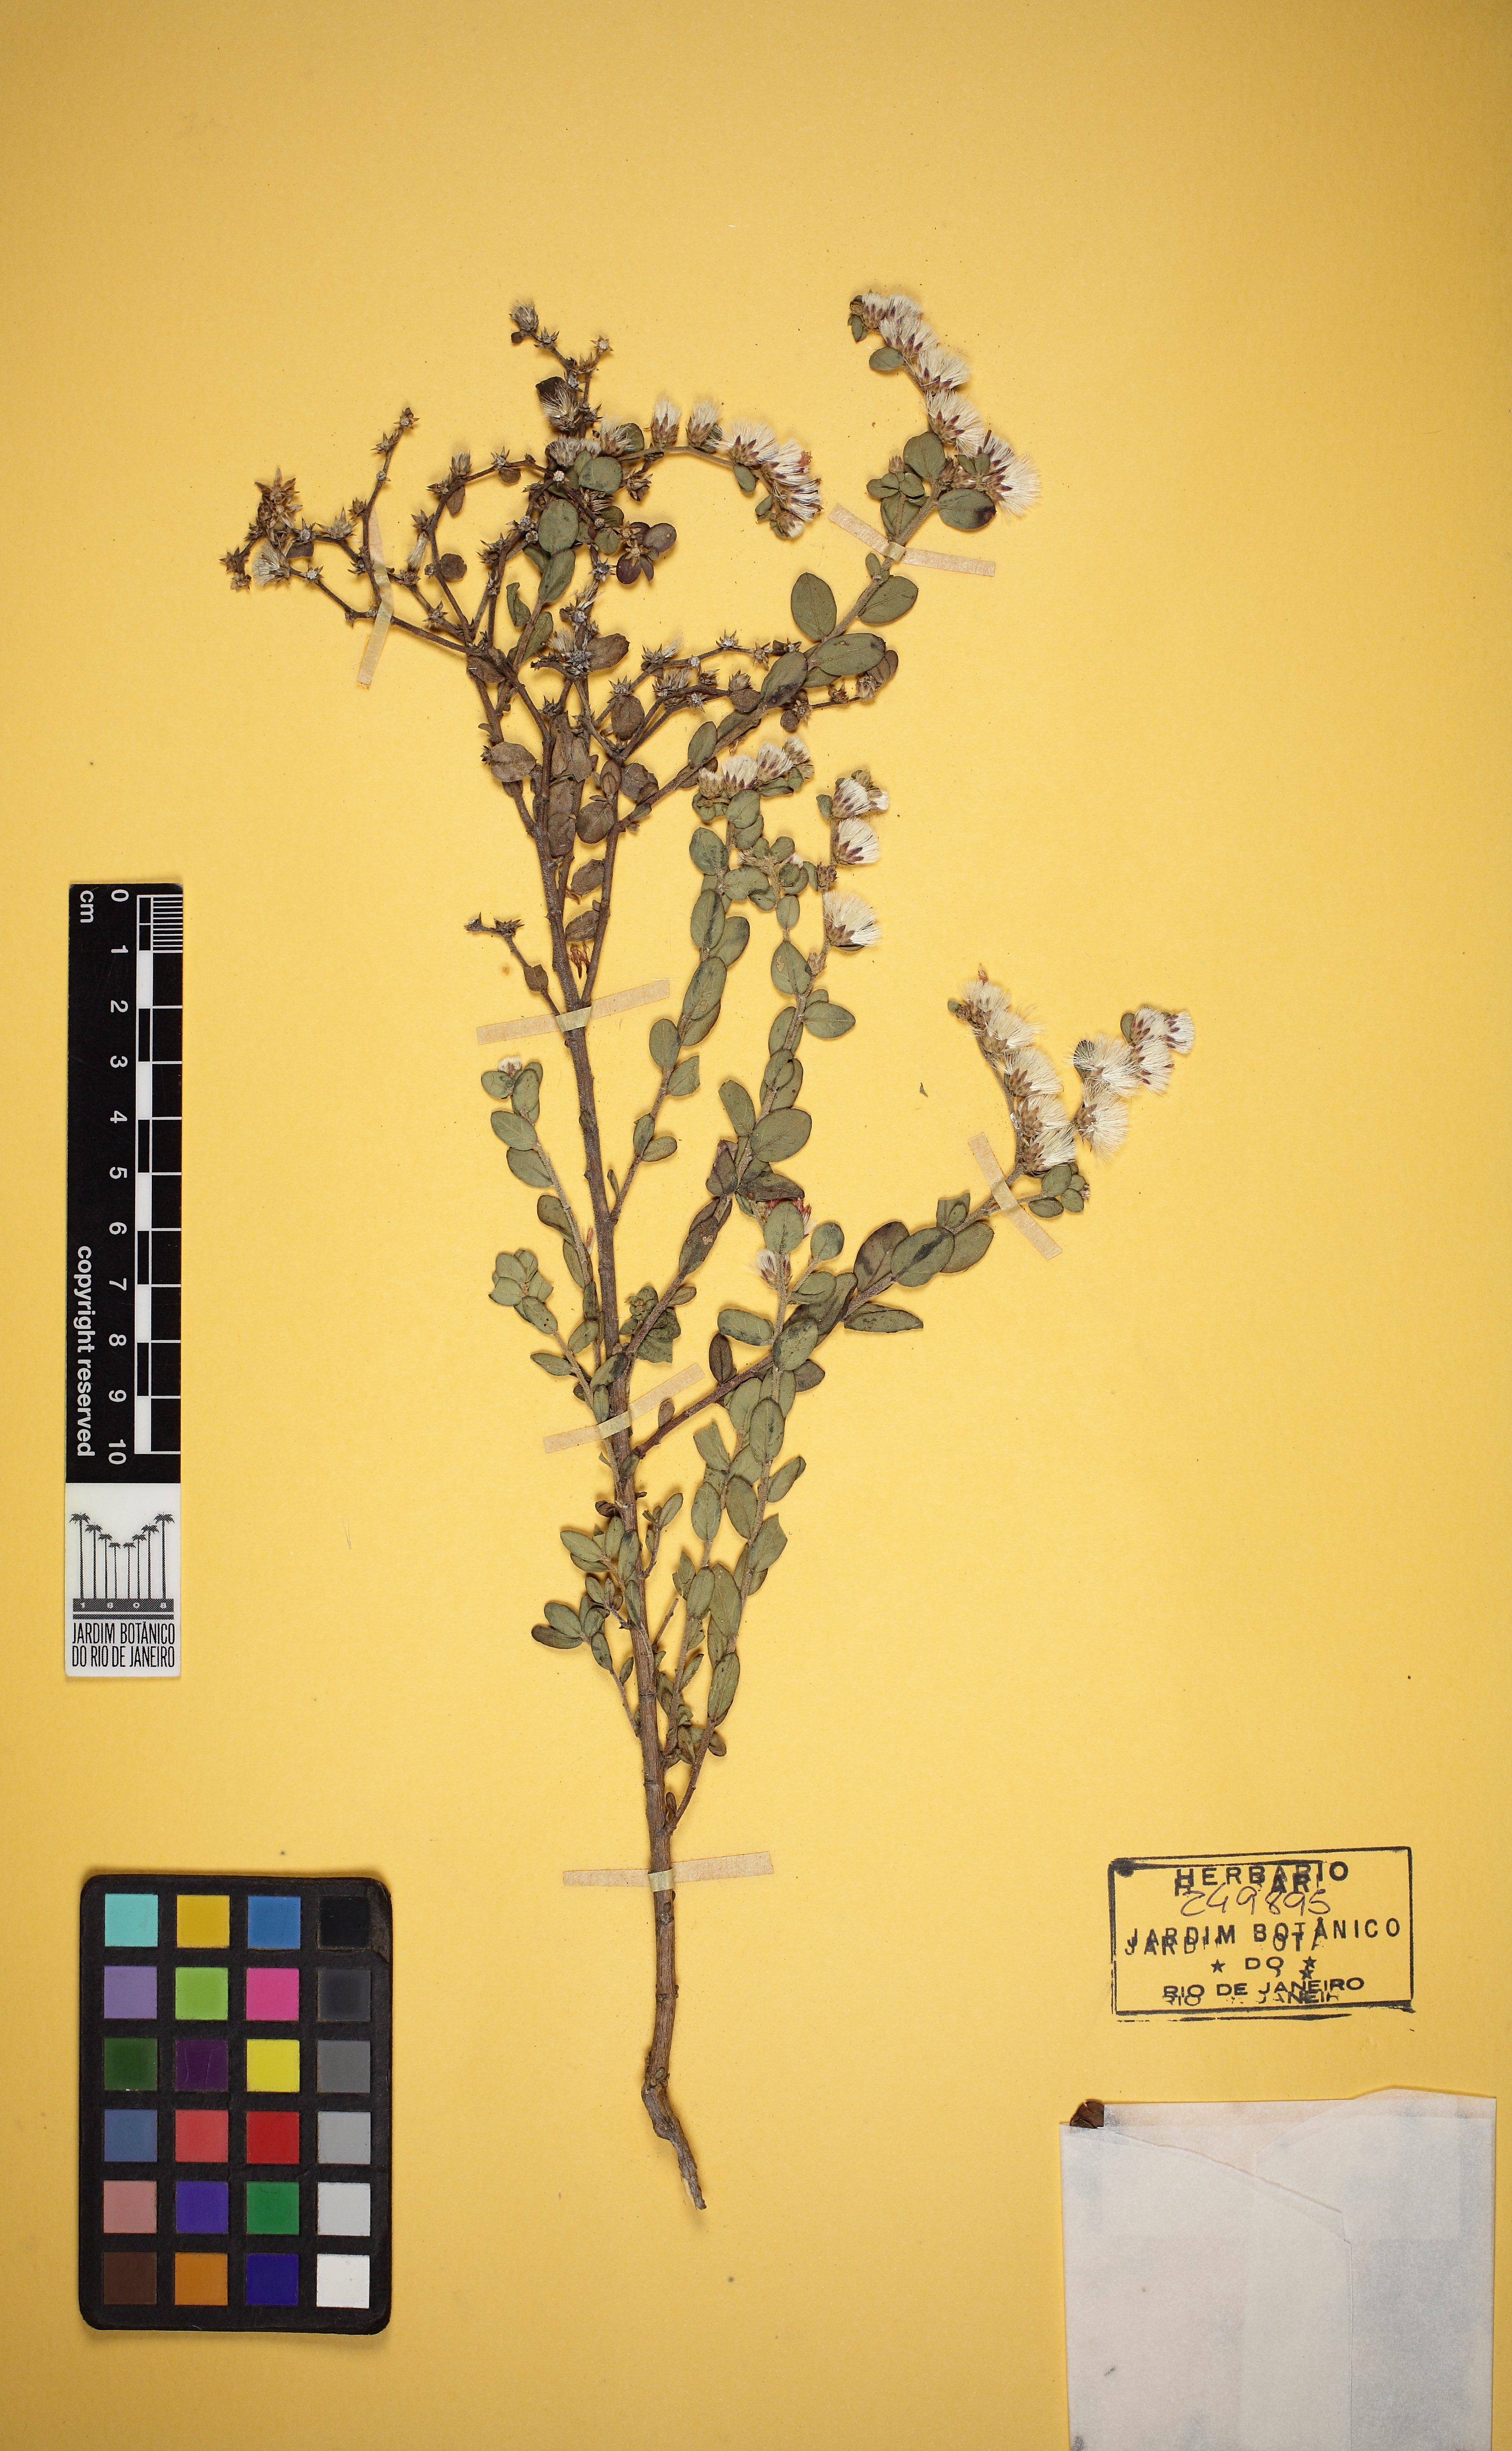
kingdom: Plantae
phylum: Tracheophyta
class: Magnoliopsida
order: Asterales
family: Asteraceae
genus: Lepidaploa
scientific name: Lepidaploa mucronifolia
